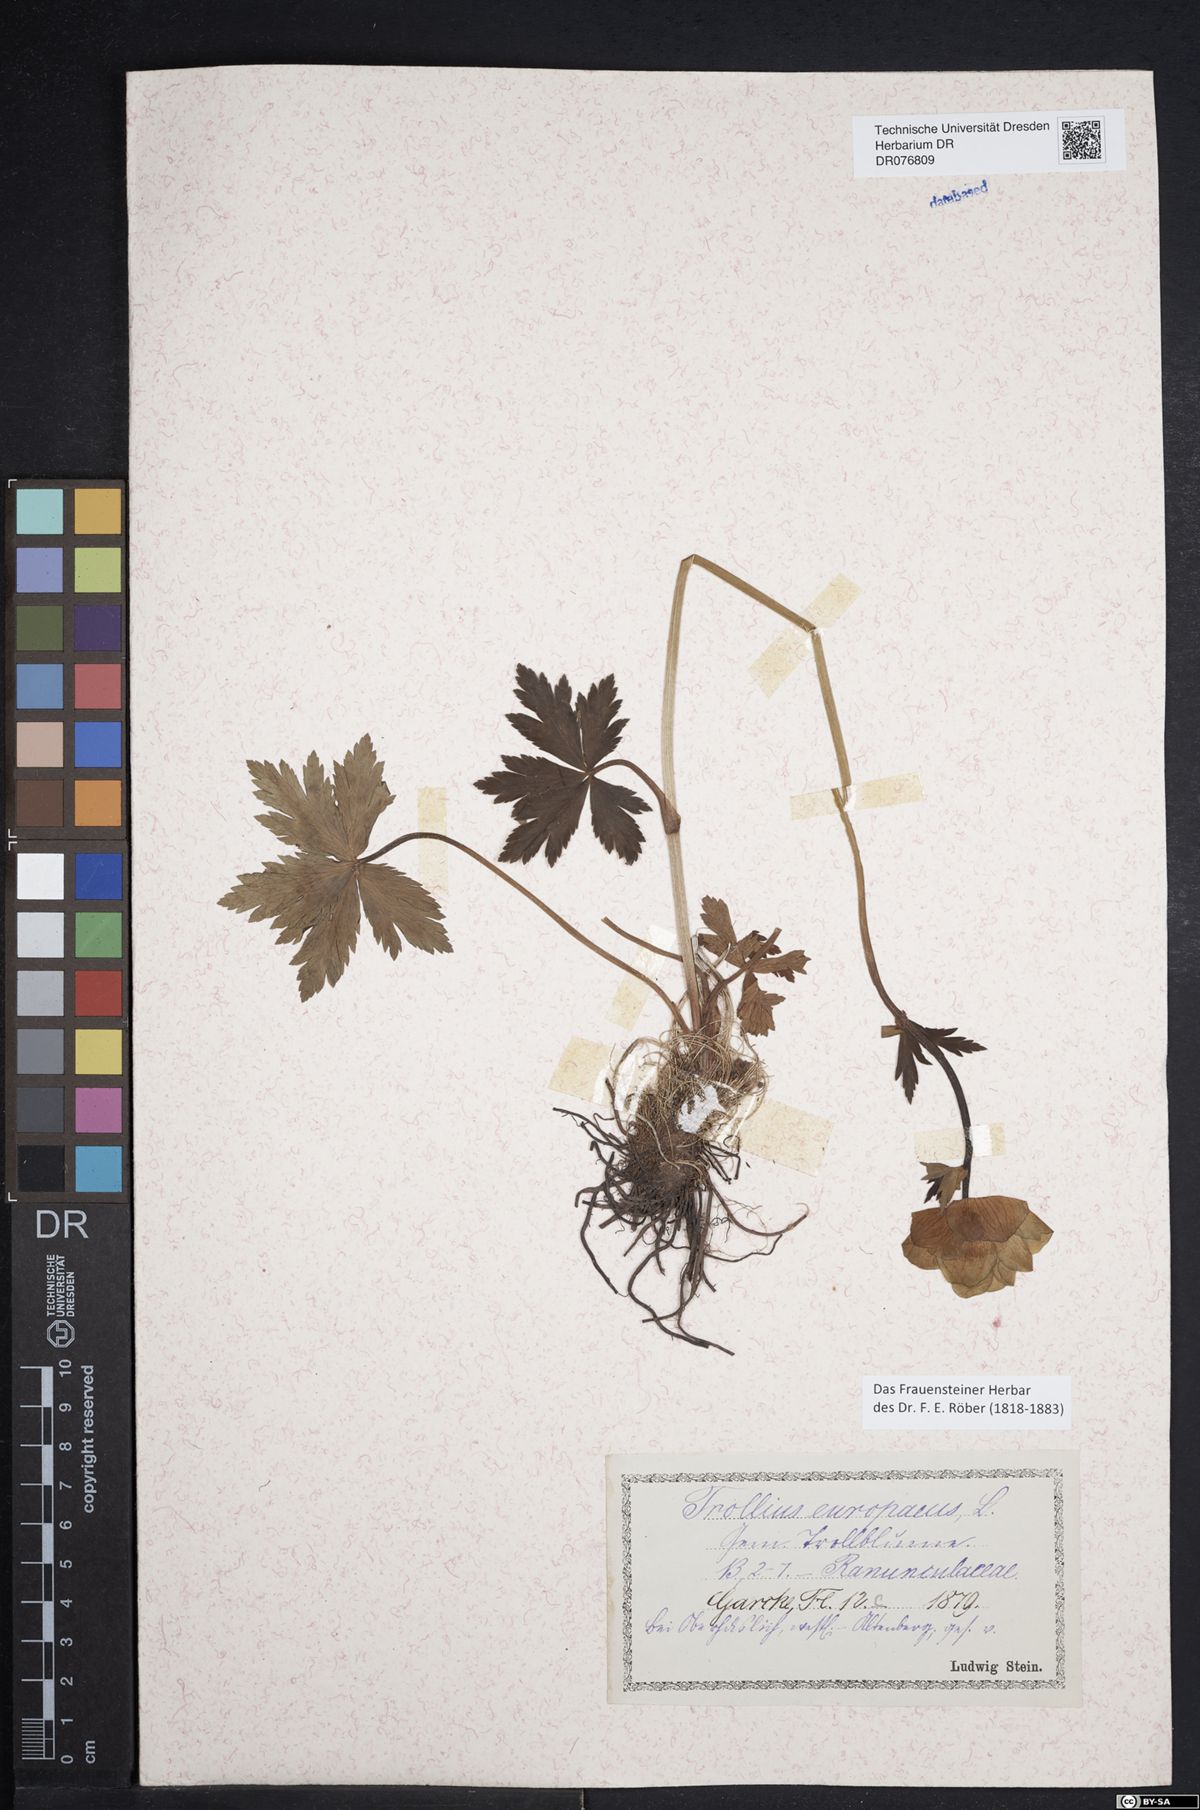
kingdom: Plantae
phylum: Tracheophyta
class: Magnoliopsida
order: Ranunculales
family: Ranunculaceae
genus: Trollius
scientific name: Trollius europaeus
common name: European globeflower
